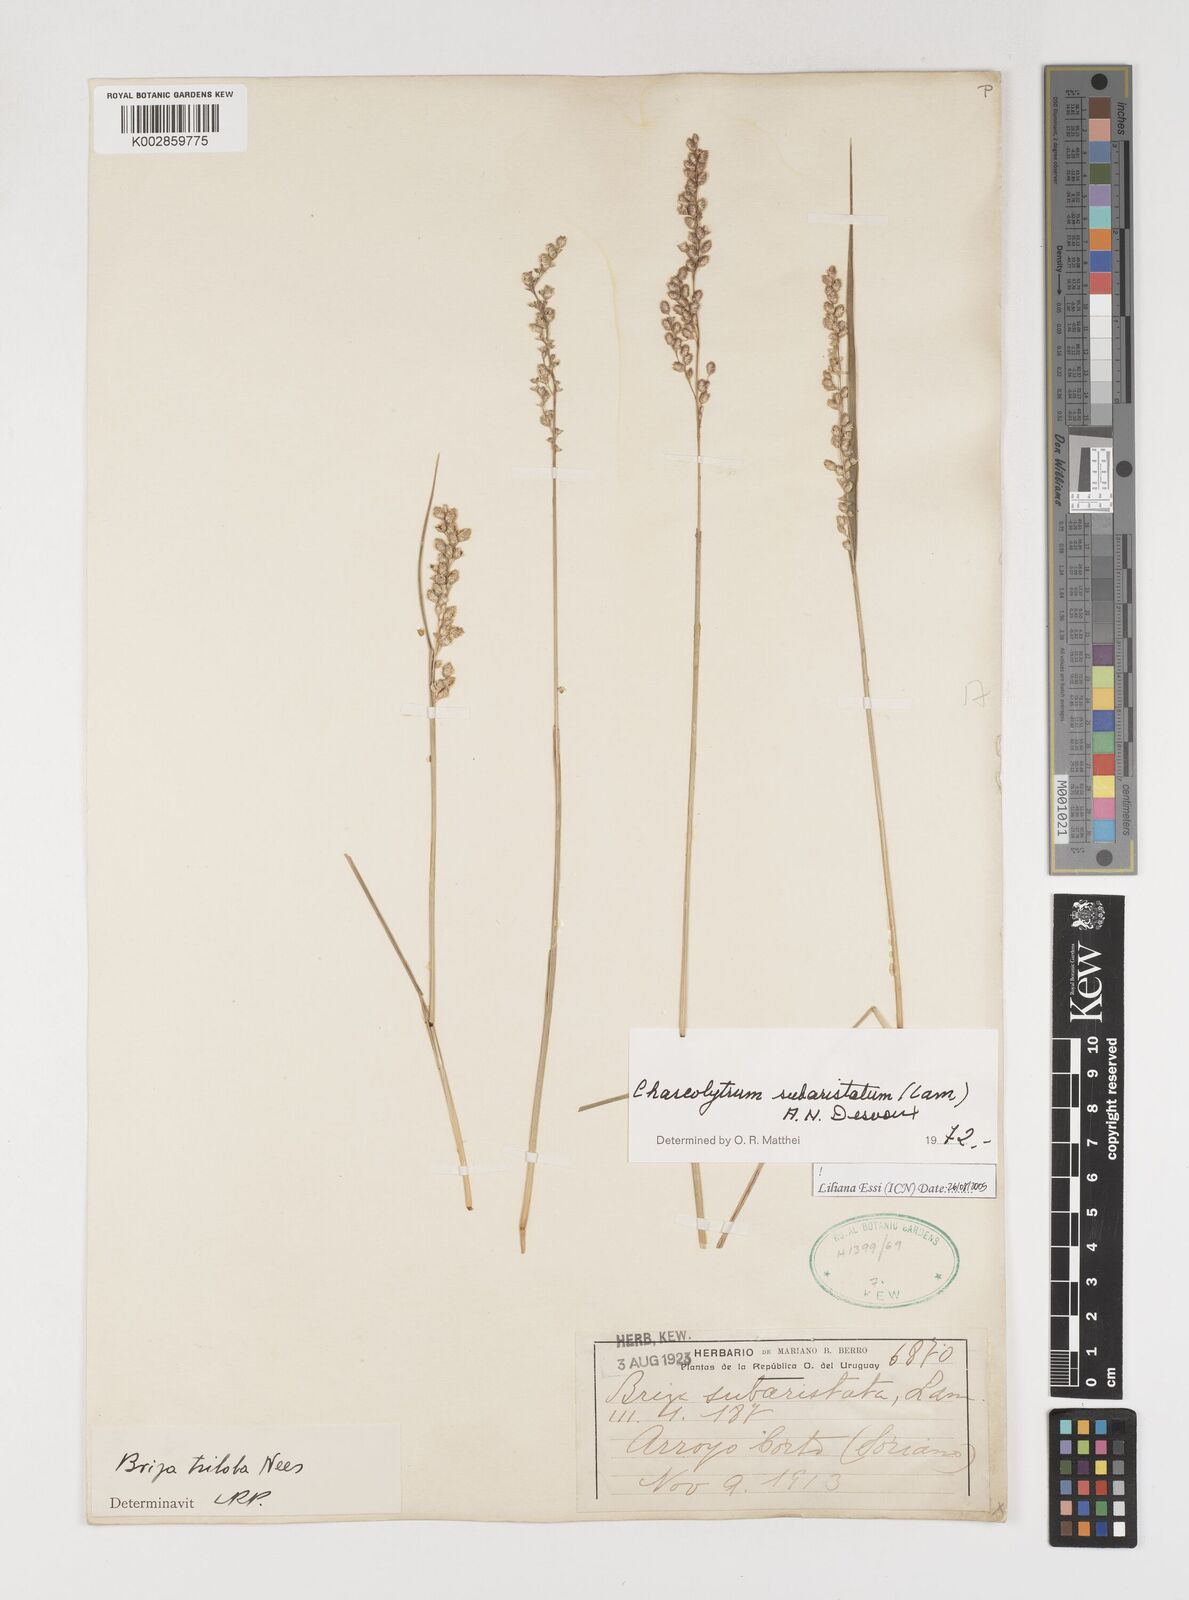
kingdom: Plantae
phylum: Tracheophyta
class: Liliopsida
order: Poales
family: Poaceae
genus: Chascolytrum
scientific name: Chascolytrum subaristatum
